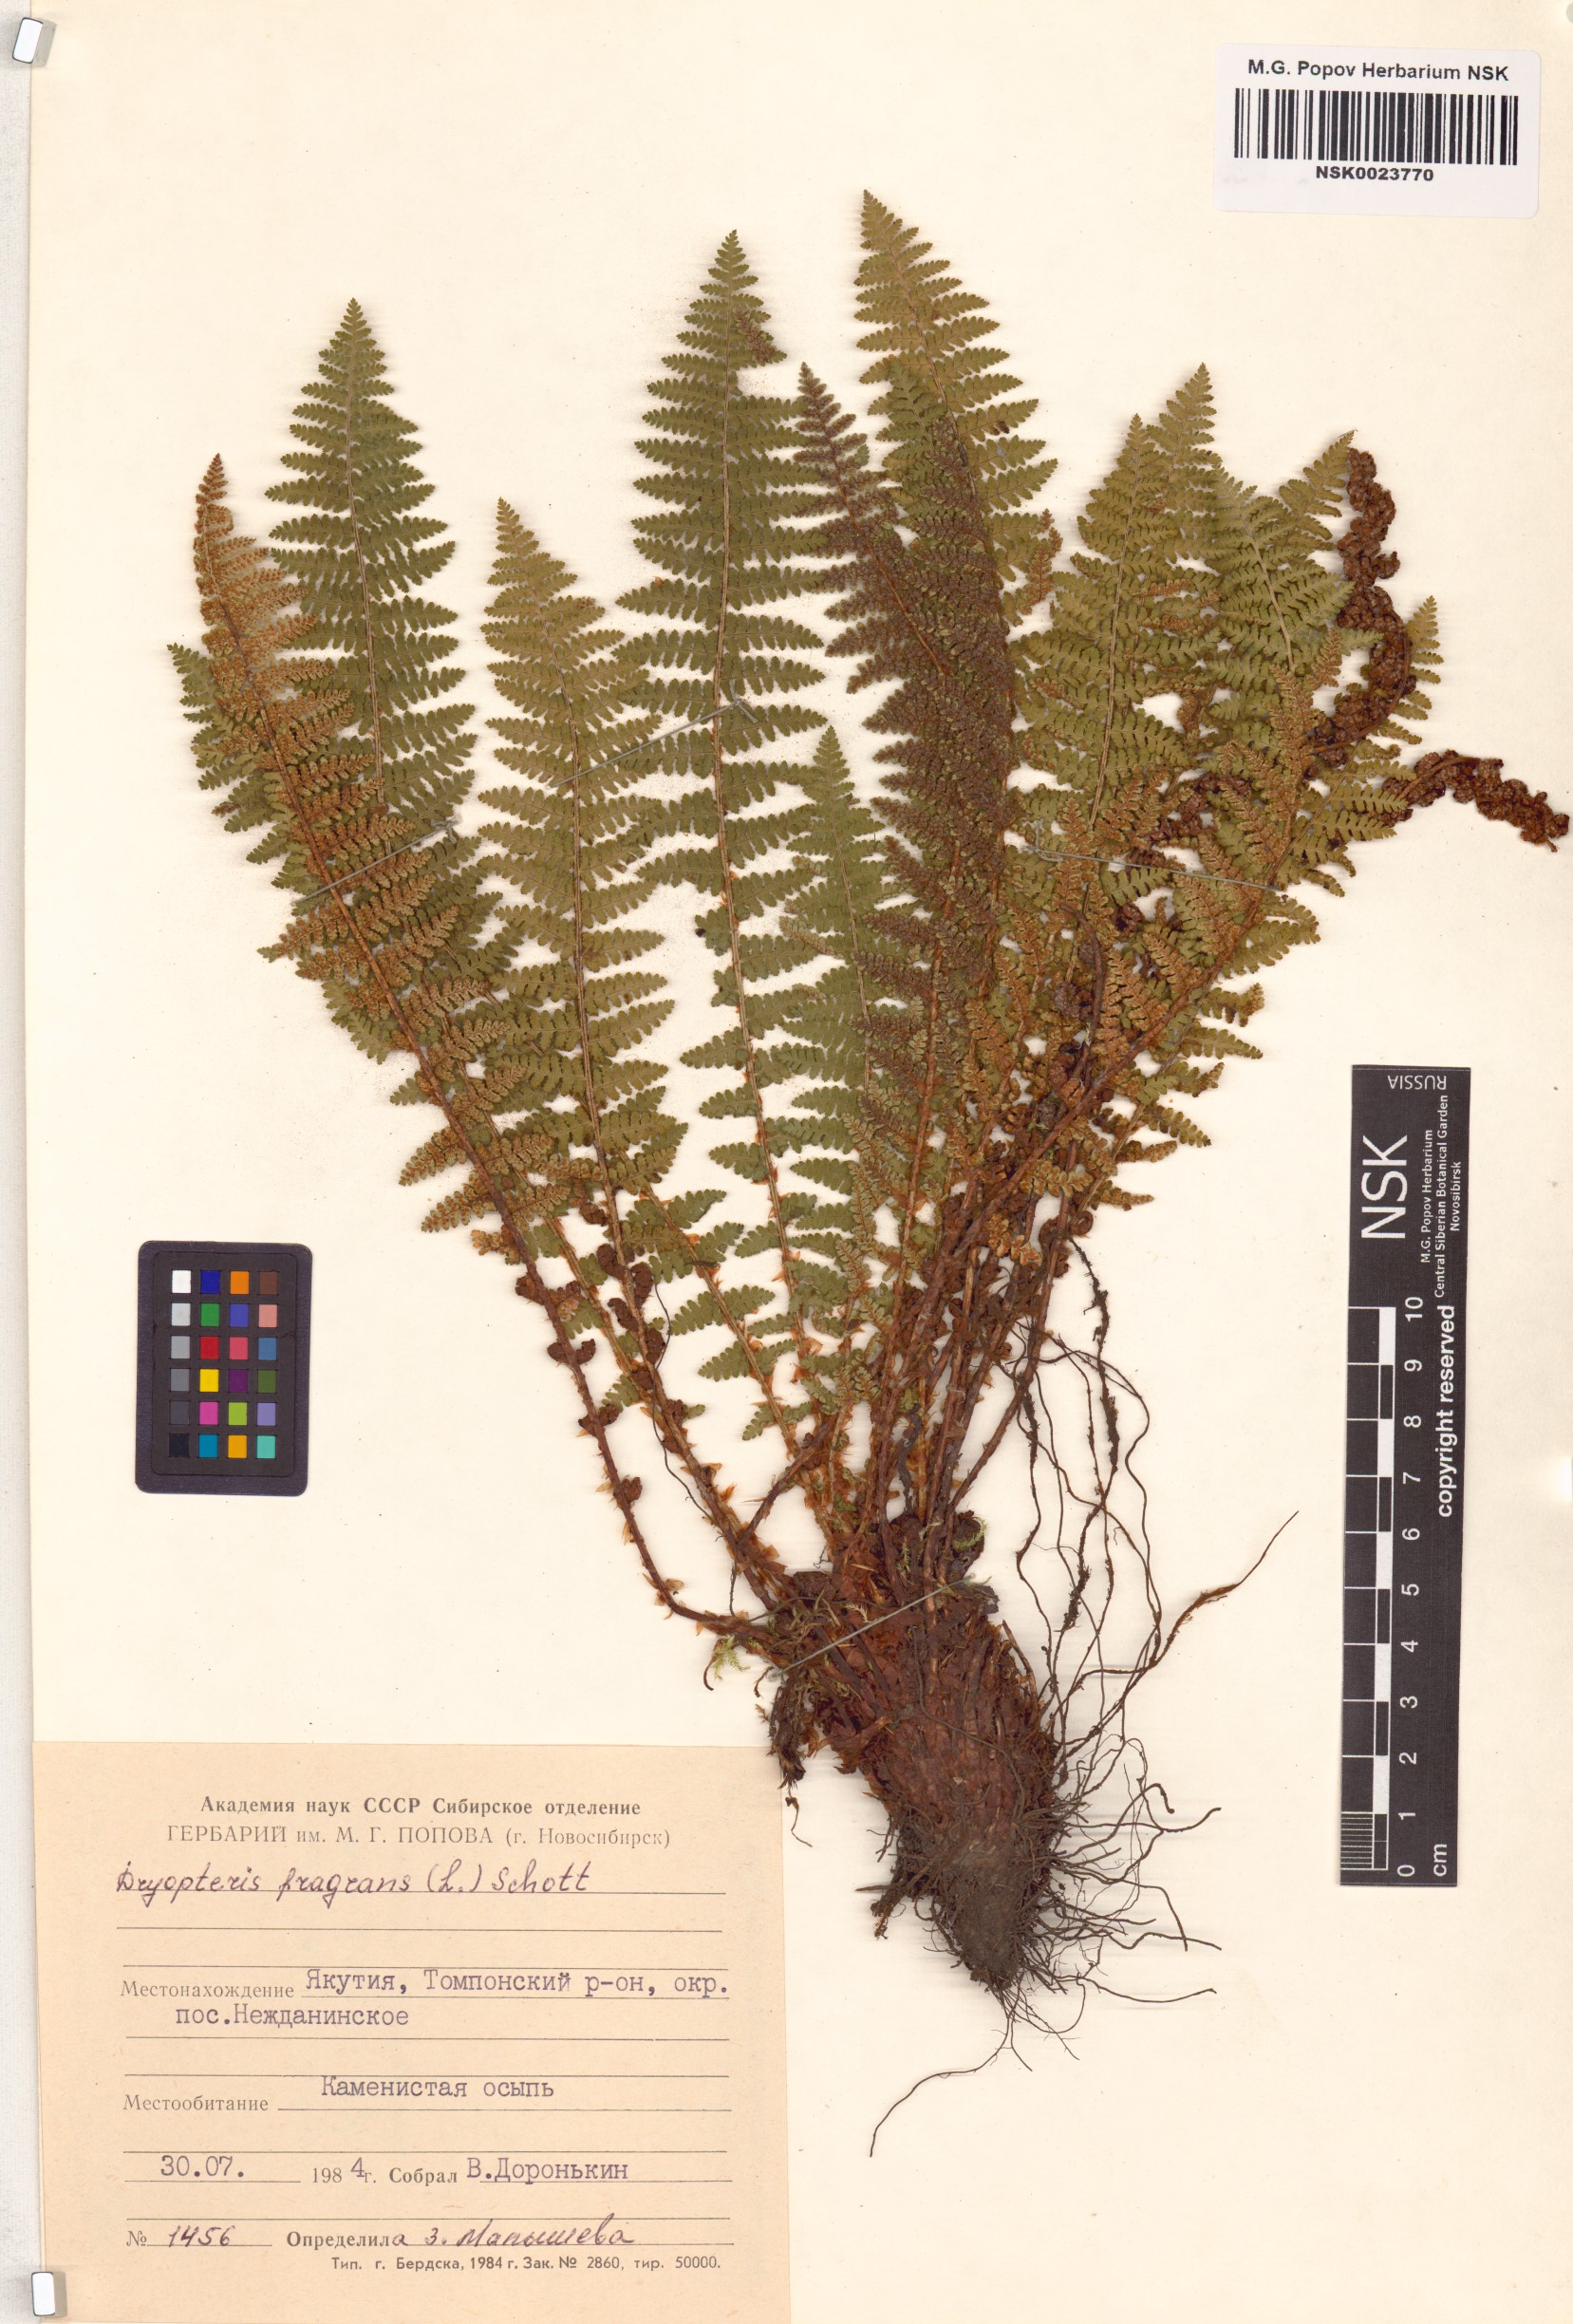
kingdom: Plantae
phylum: Tracheophyta
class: Polypodiopsida
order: Polypodiales
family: Dryopteridaceae
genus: Dryopteris
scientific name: Dryopteris fragrans
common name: Fragrant wood fern
